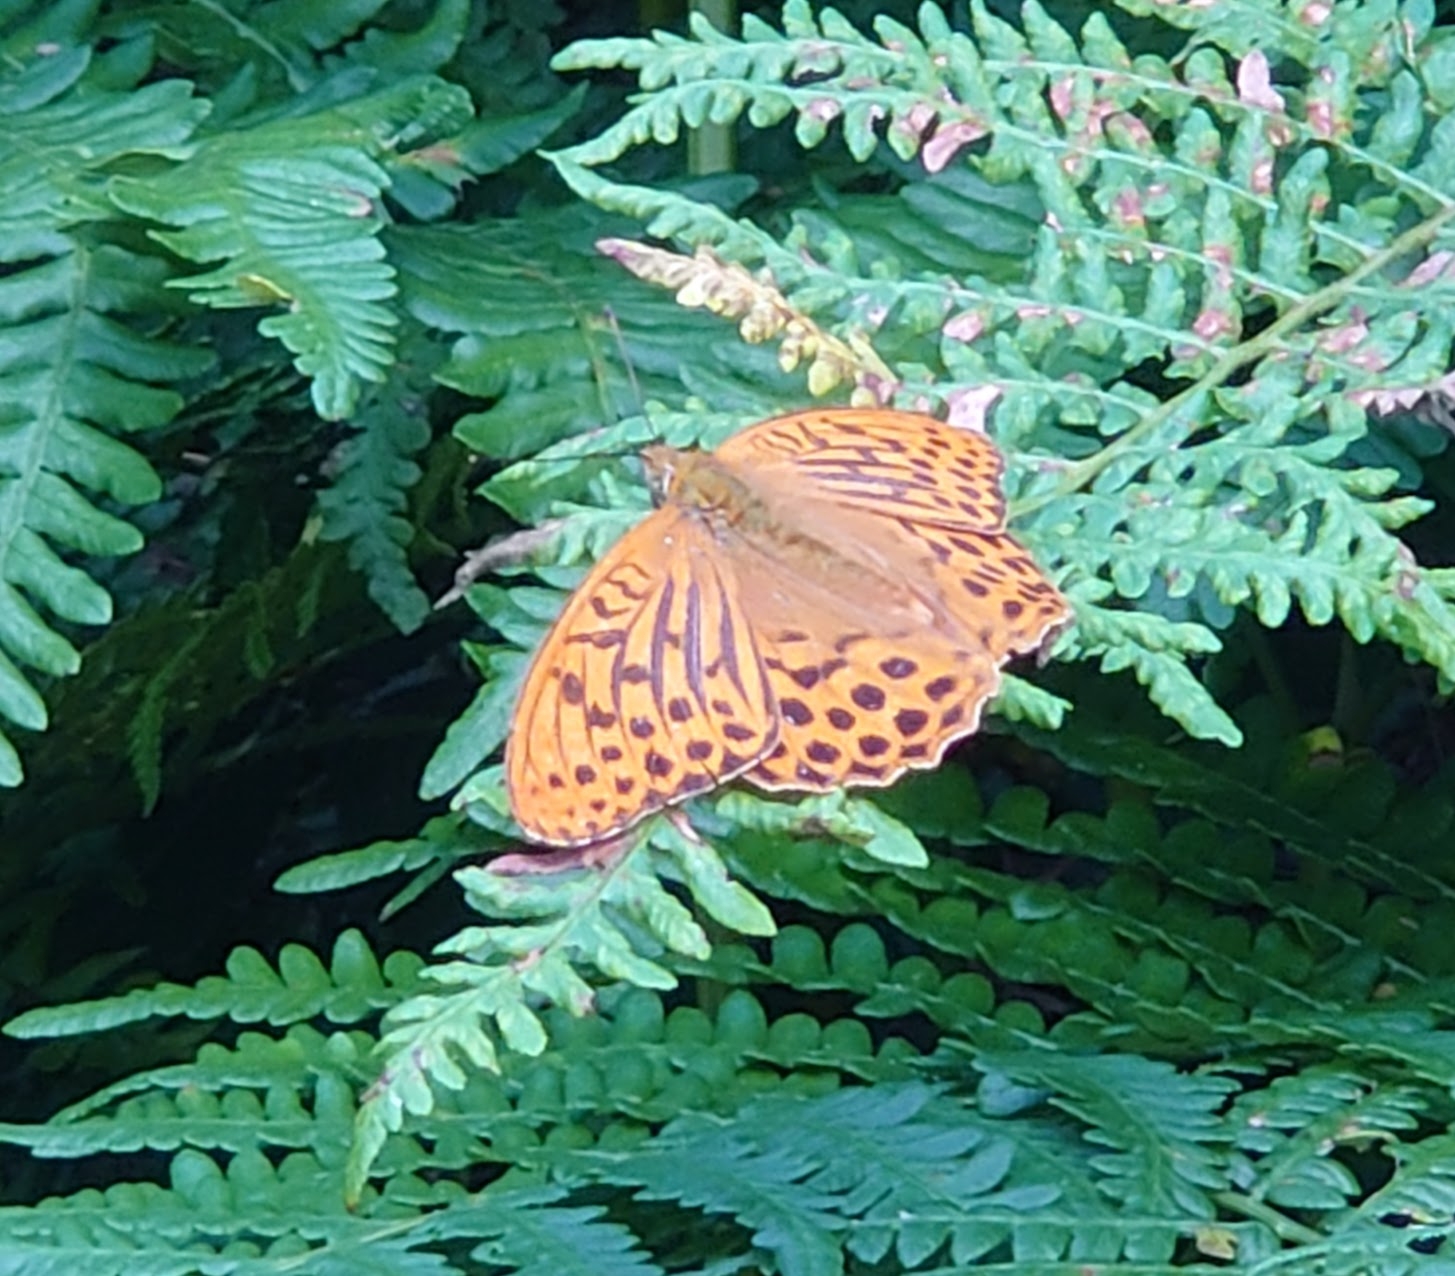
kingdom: Animalia
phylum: Arthropoda
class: Insecta
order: Lepidoptera
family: Nymphalidae
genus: Argynnis
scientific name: Argynnis paphia
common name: Kejserkåbe
